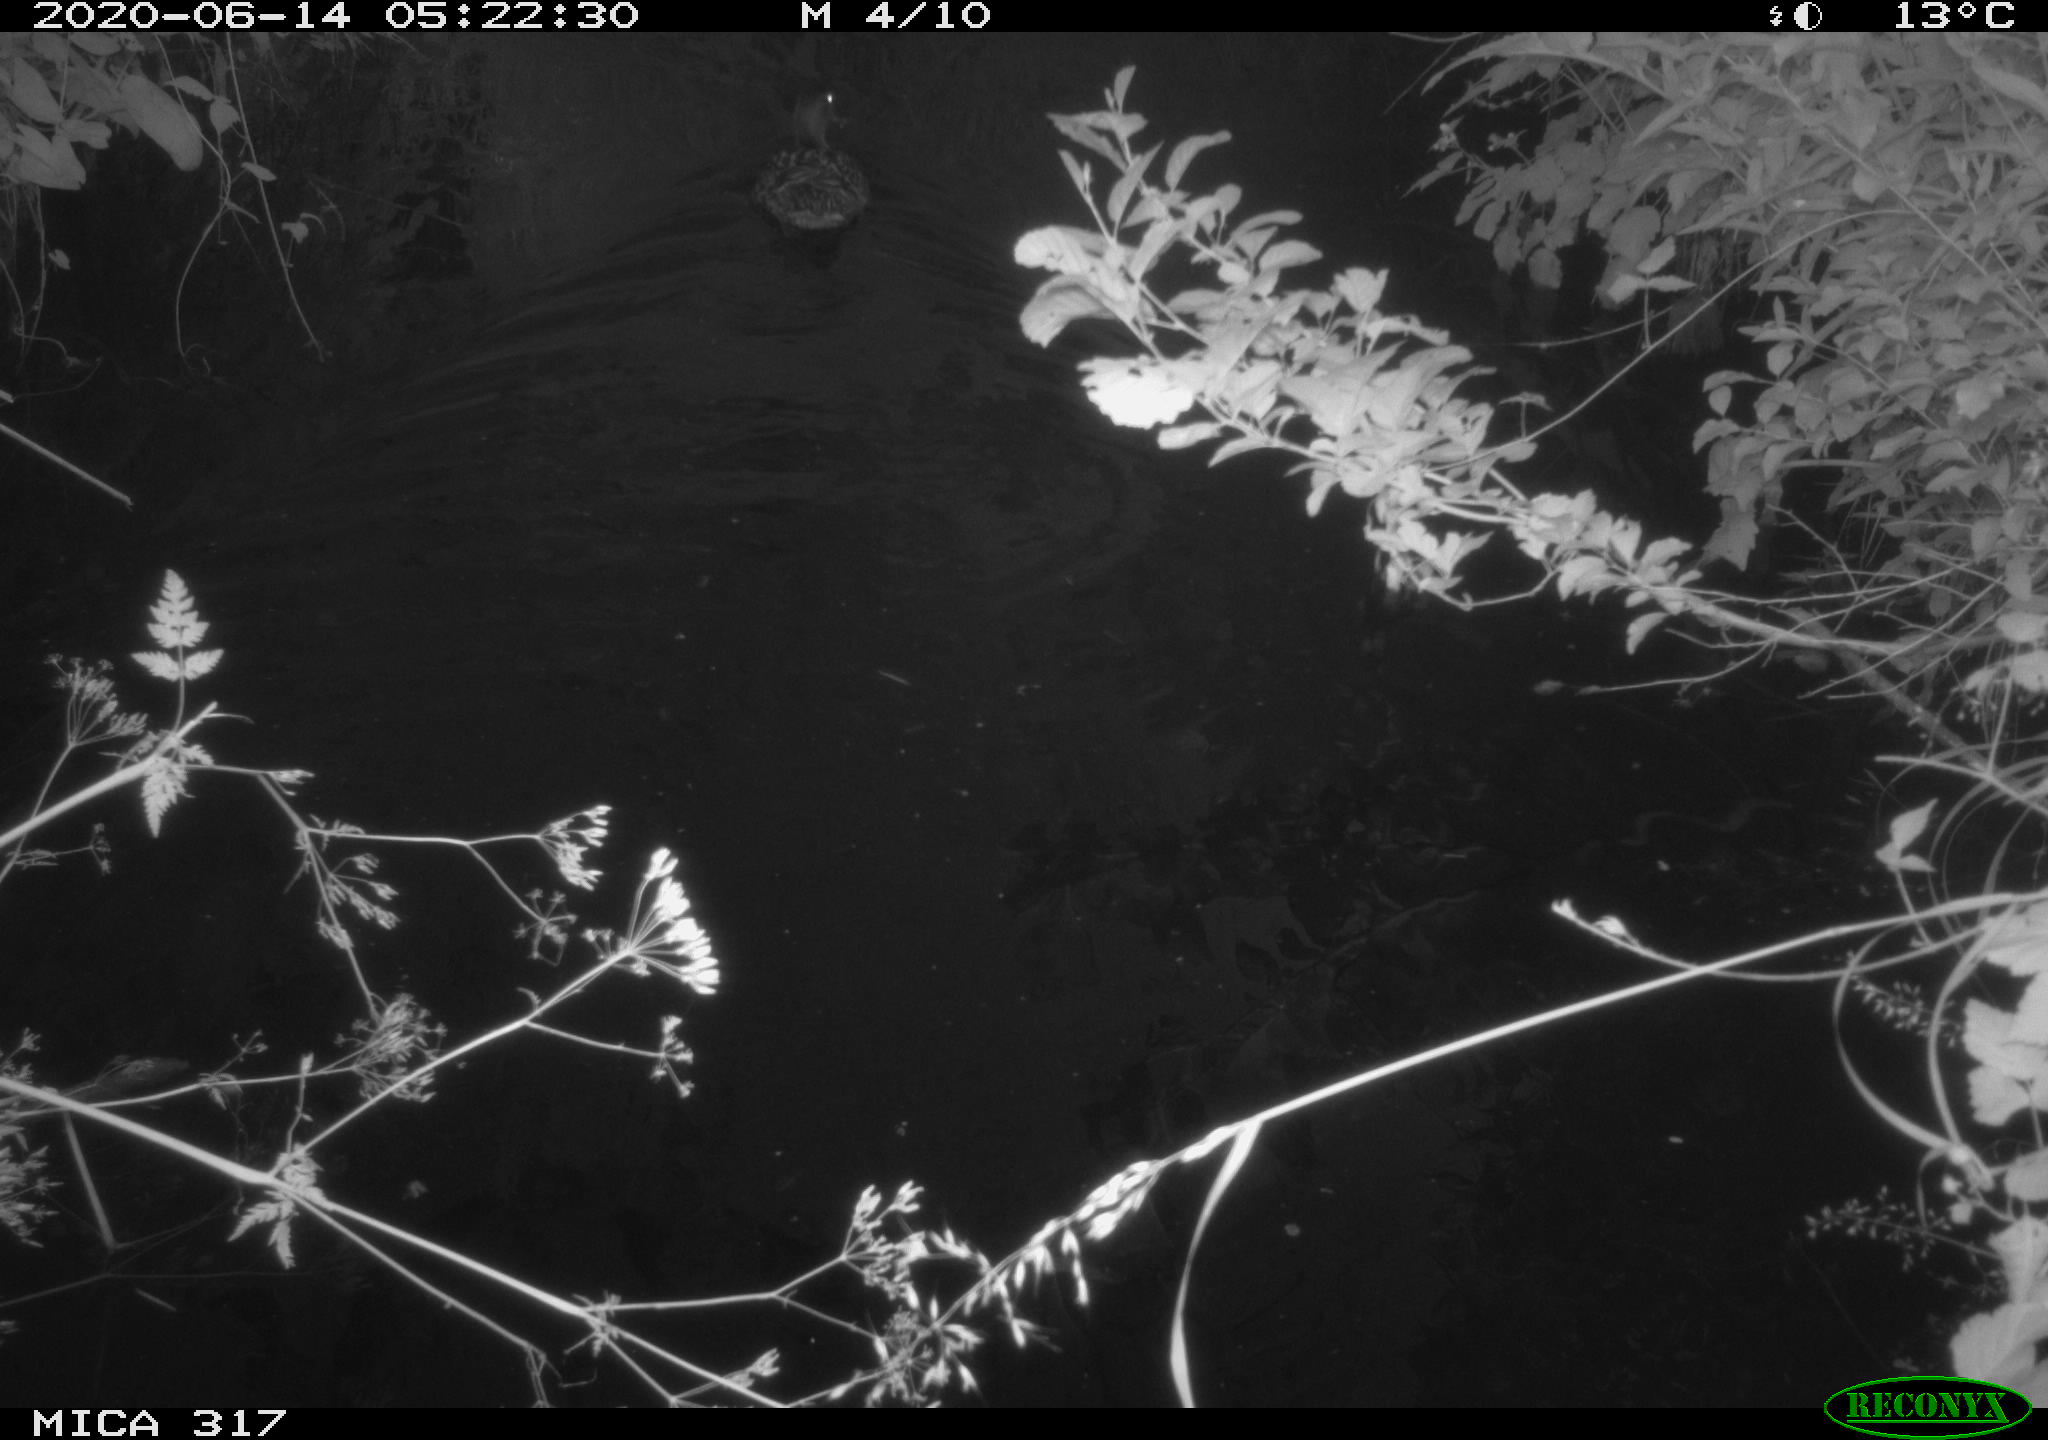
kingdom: Animalia
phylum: Chordata
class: Aves
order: Anseriformes
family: Anatidae
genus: Anas
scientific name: Anas platyrhynchos
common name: Mallard
